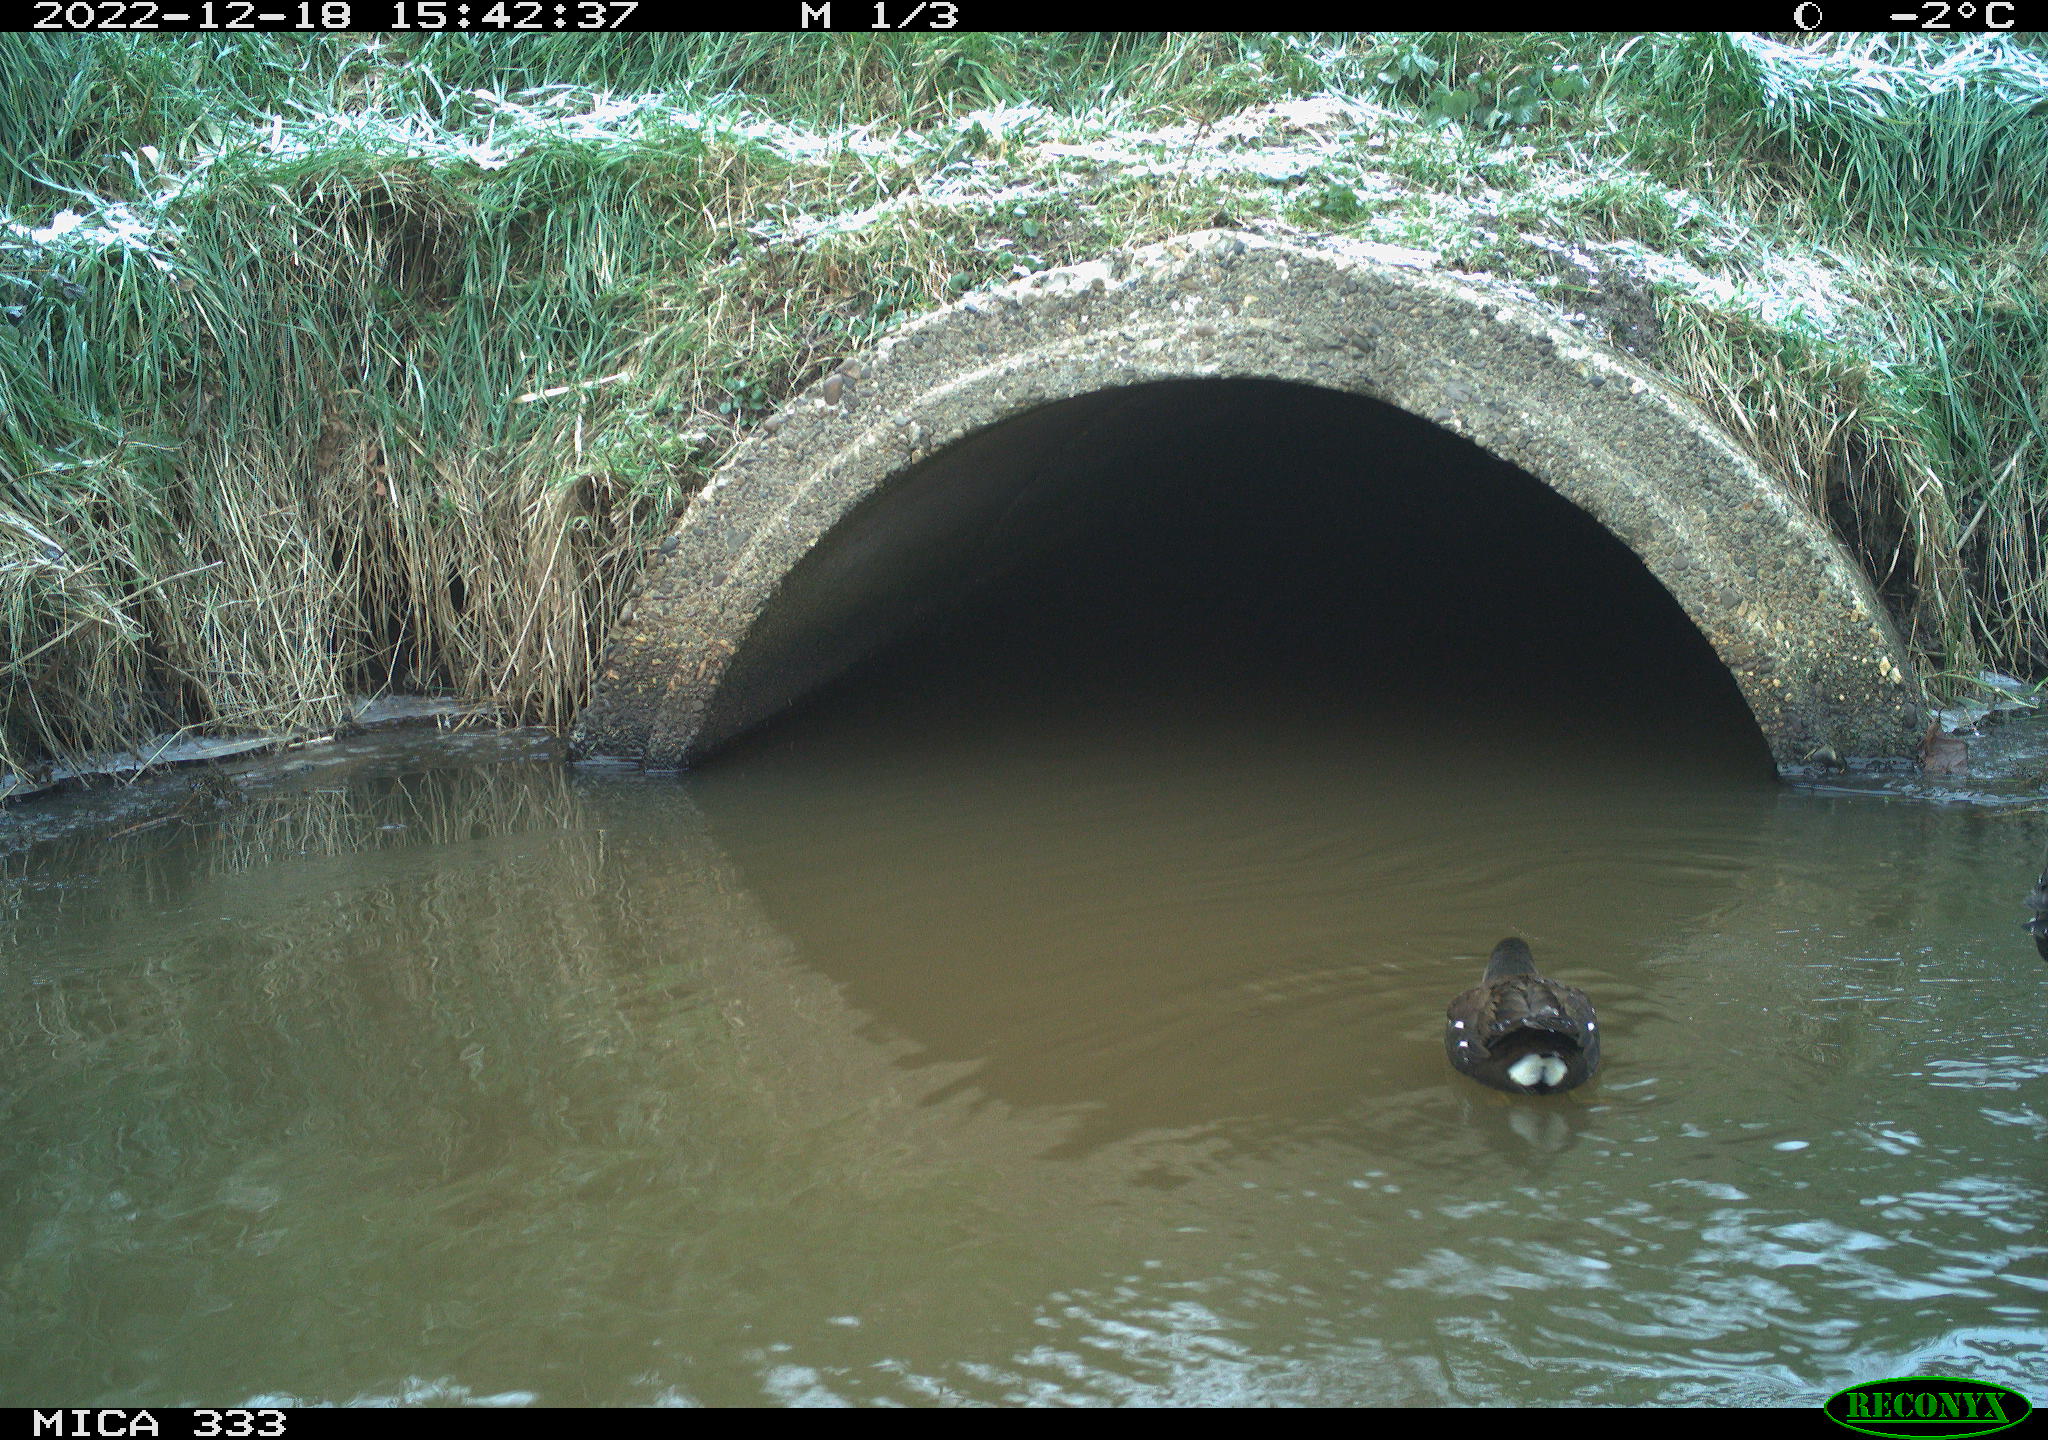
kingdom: Animalia
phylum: Chordata
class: Aves
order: Gruiformes
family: Rallidae
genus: Gallinula
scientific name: Gallinula chloropus
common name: Common moorhen
